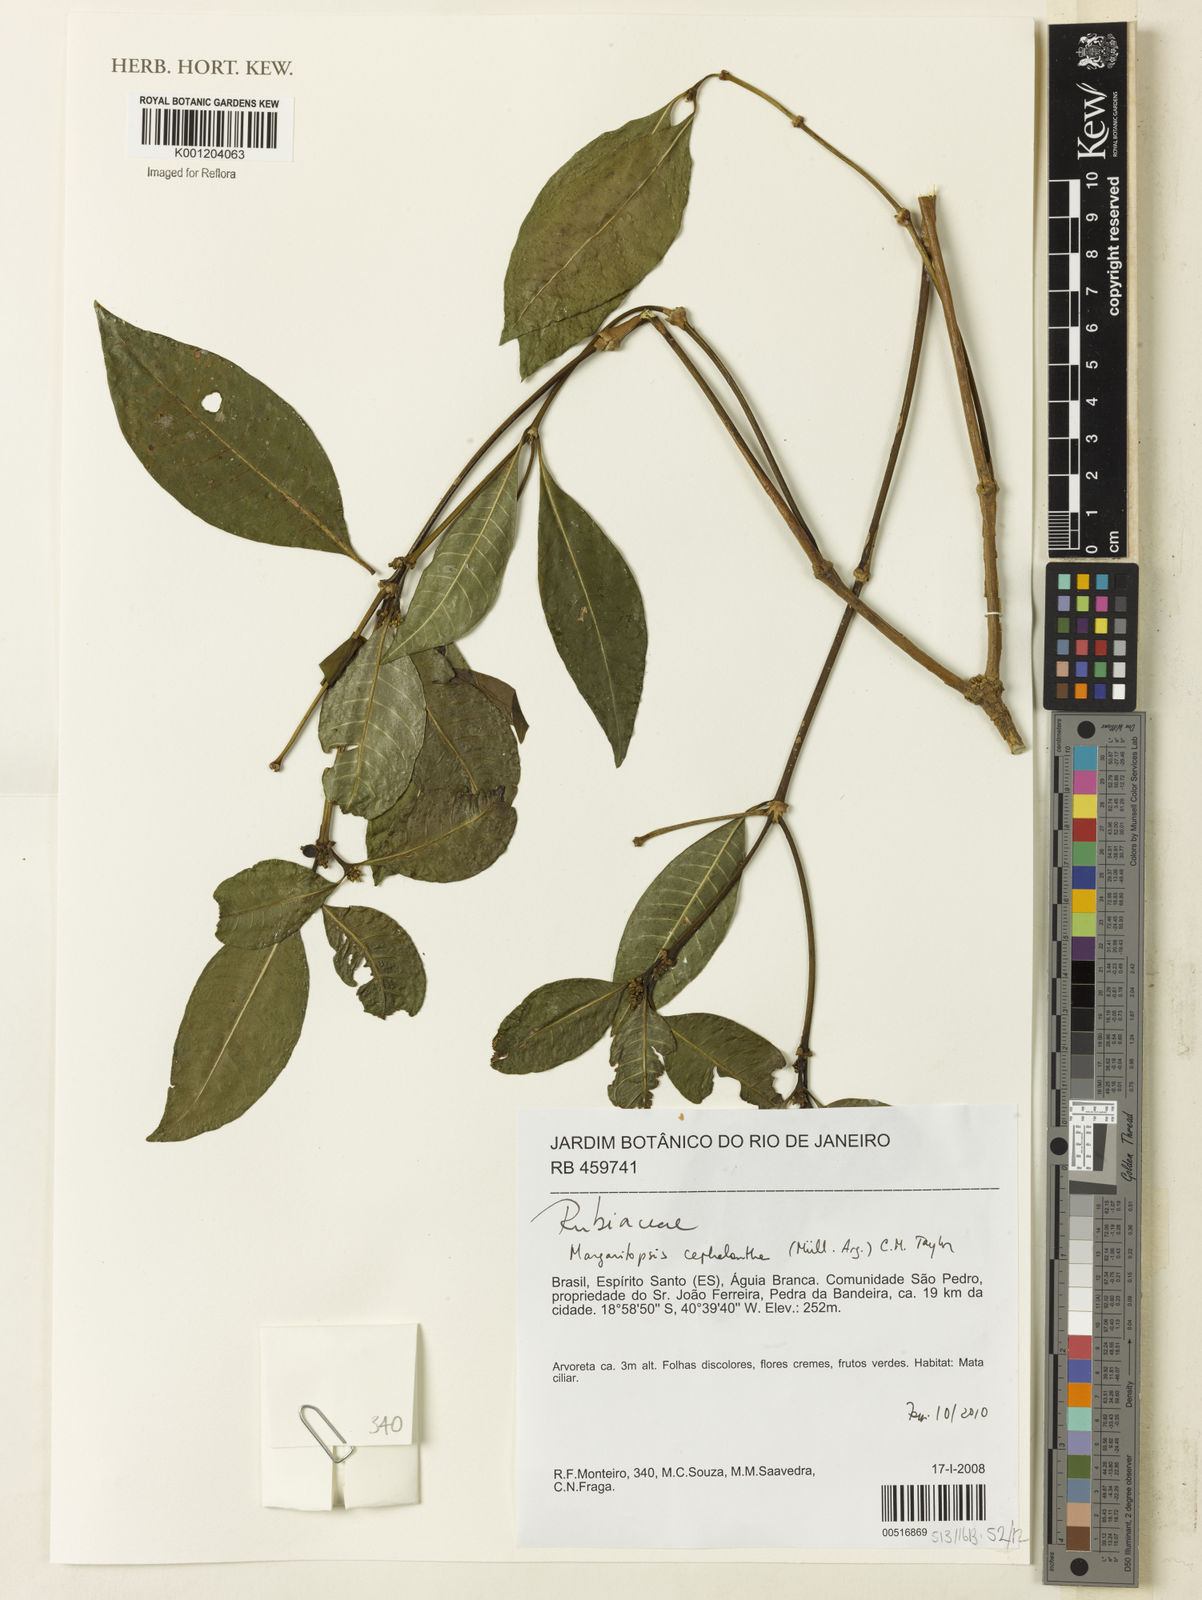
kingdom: Plantae
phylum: Tracheophyta
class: Magnoliopsida
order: Gentianales
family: Rubiaceae
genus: Eumachia
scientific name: Eumachia
